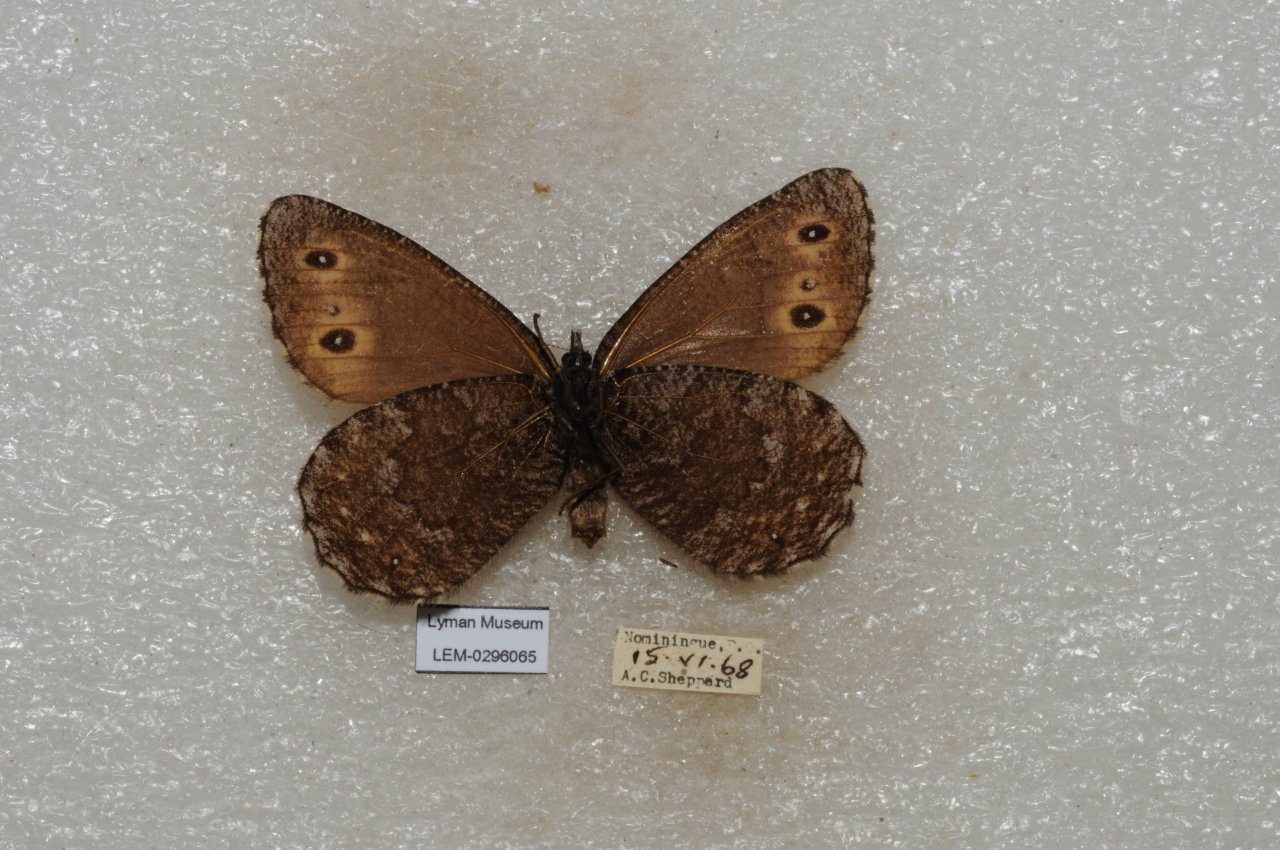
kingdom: Animalia
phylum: Arthropoda
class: Insecta
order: Lepidoptera
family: Nymphalidae
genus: Oeneis
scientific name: Oeneis jutta
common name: Jutta Arctic
